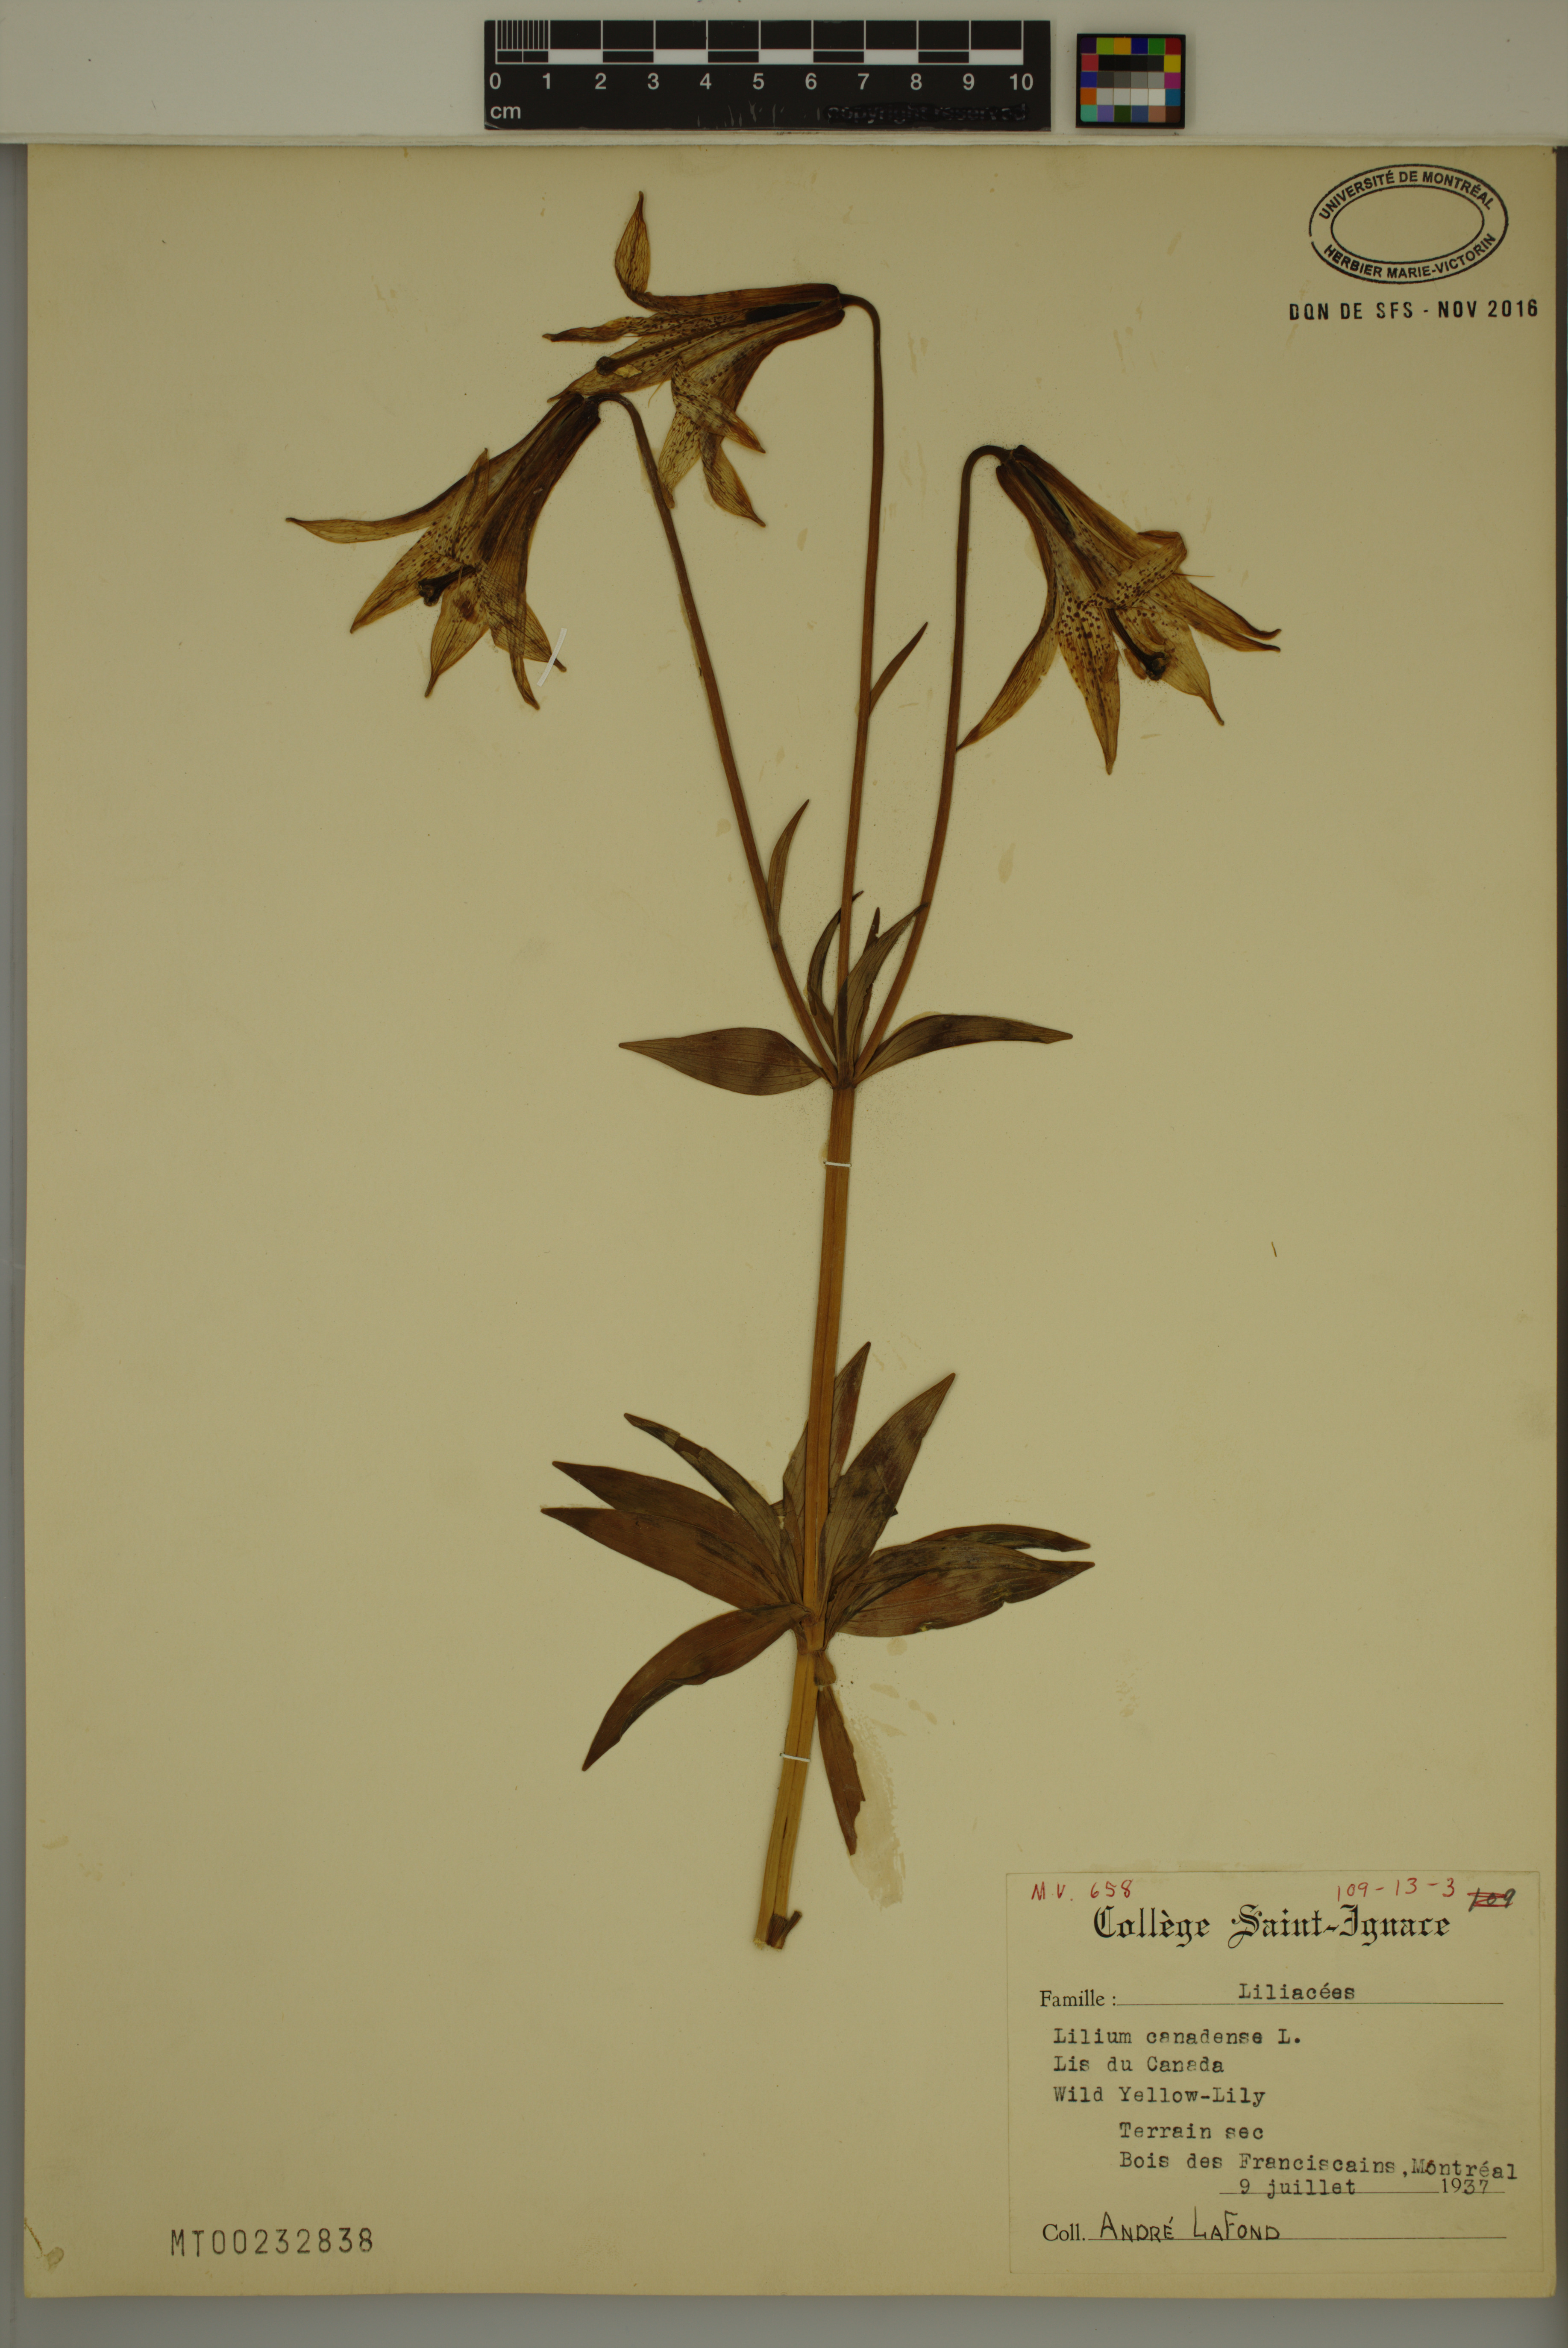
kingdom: Plantae
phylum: Tracheophyta
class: Liliopsida
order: Liliales
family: Liliaceae
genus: Lilium
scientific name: Lilium canadense
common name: Canada lily
